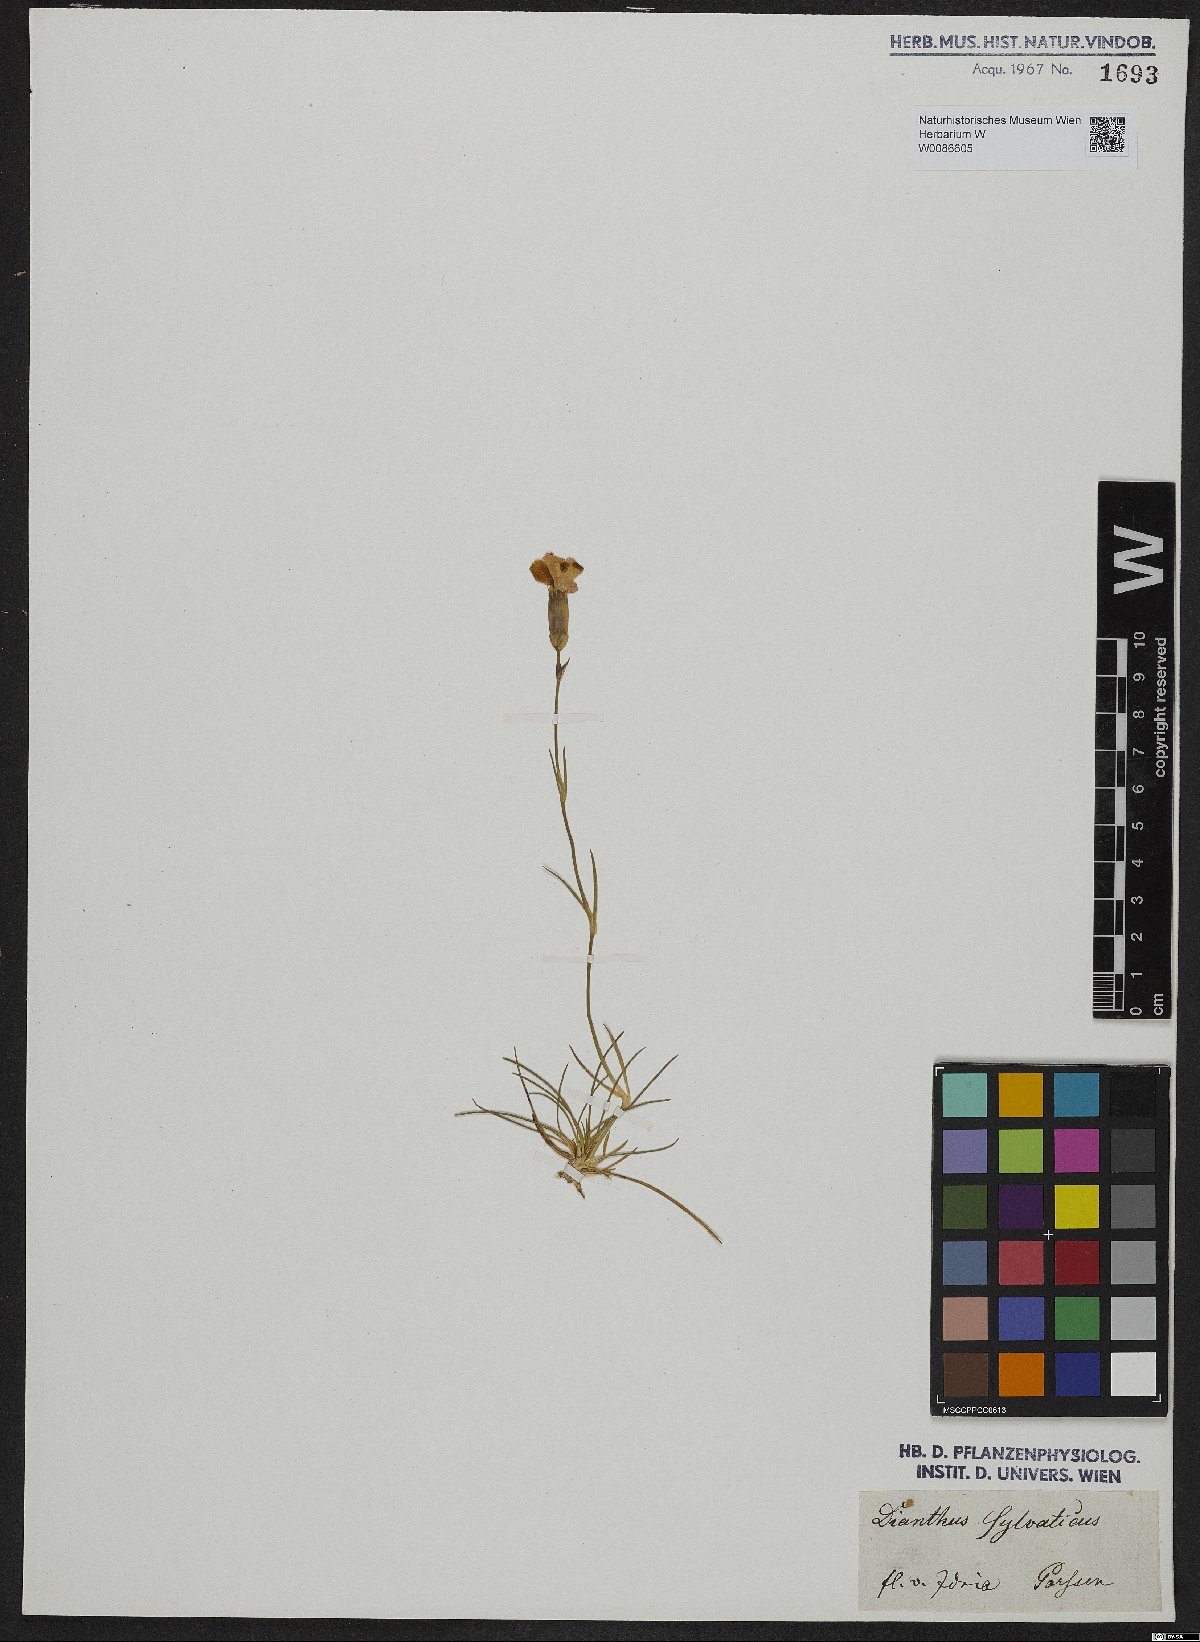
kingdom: Plantae
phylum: Tracheophyta
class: Magnoliopsida
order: Caryophyllales
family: Caryophyllaceae
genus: Dianthus
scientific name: Dianthus sylvestris
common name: Wood pink
